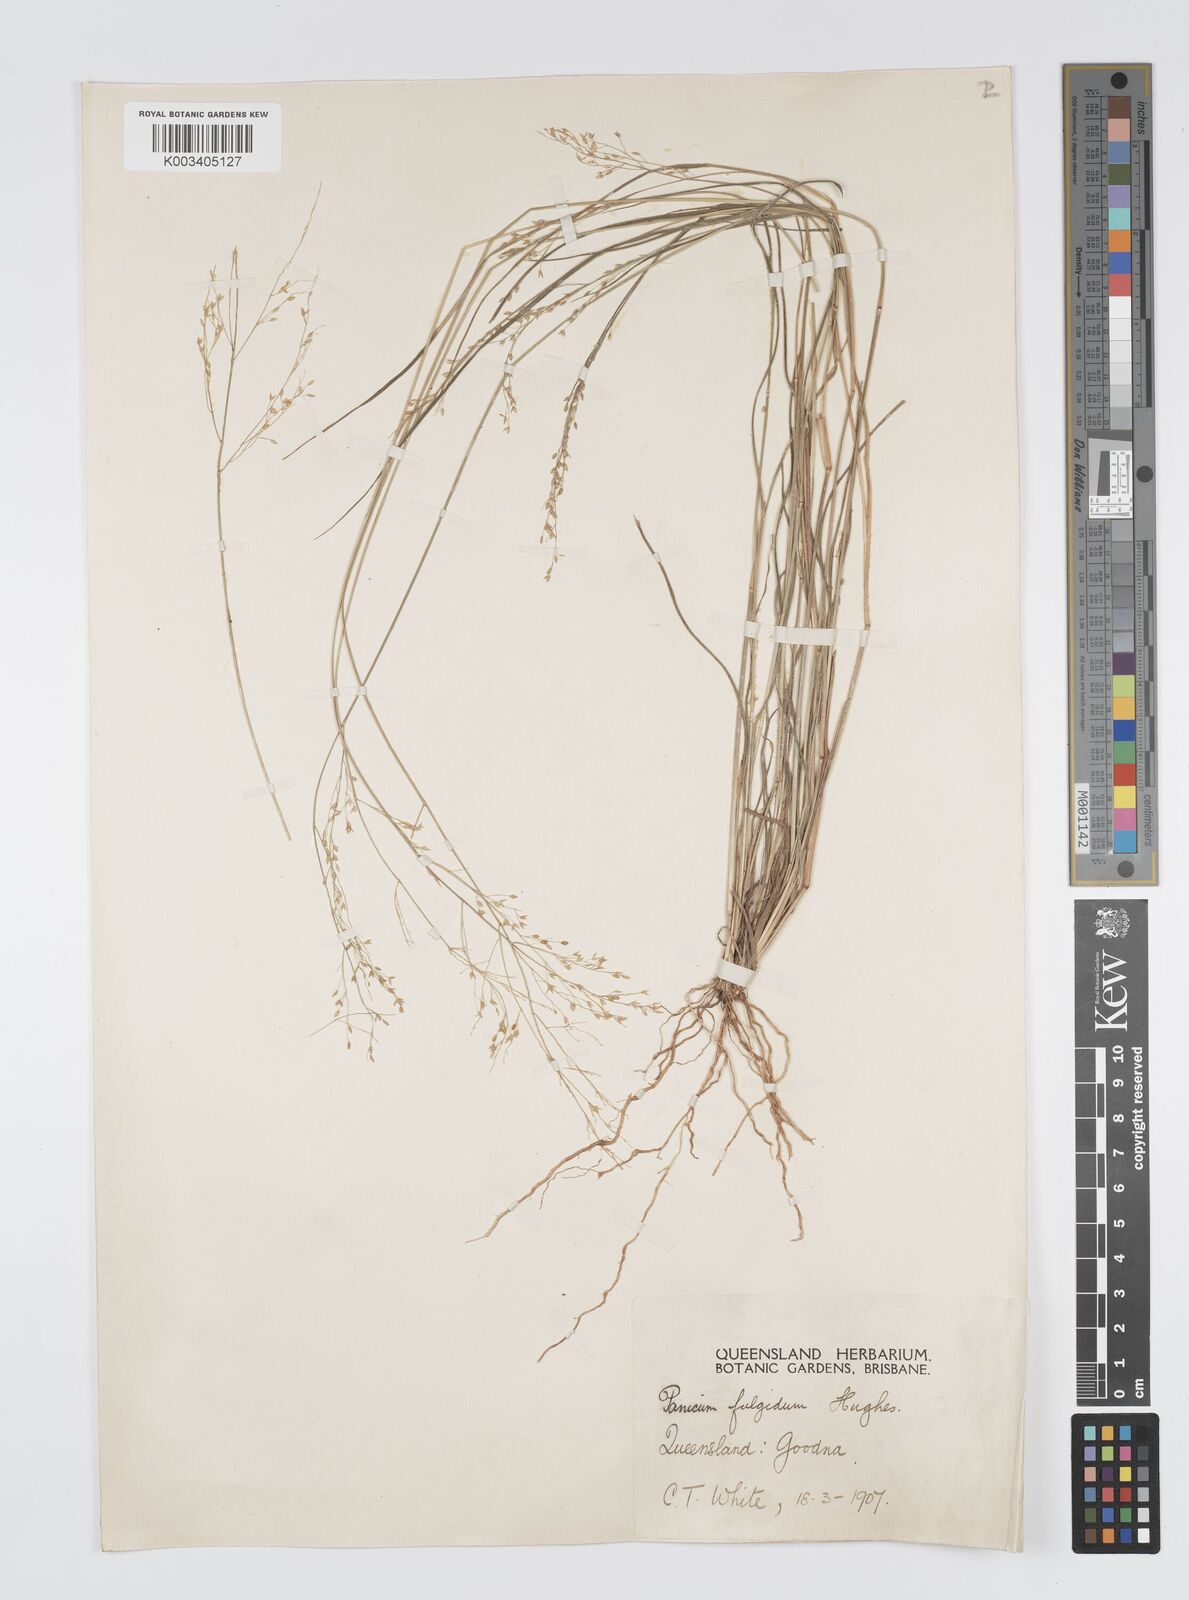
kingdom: Plantae
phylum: Tracheophyta
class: Liliopsida
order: Poales
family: Poaceae
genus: Panicum
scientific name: Panicum simile
